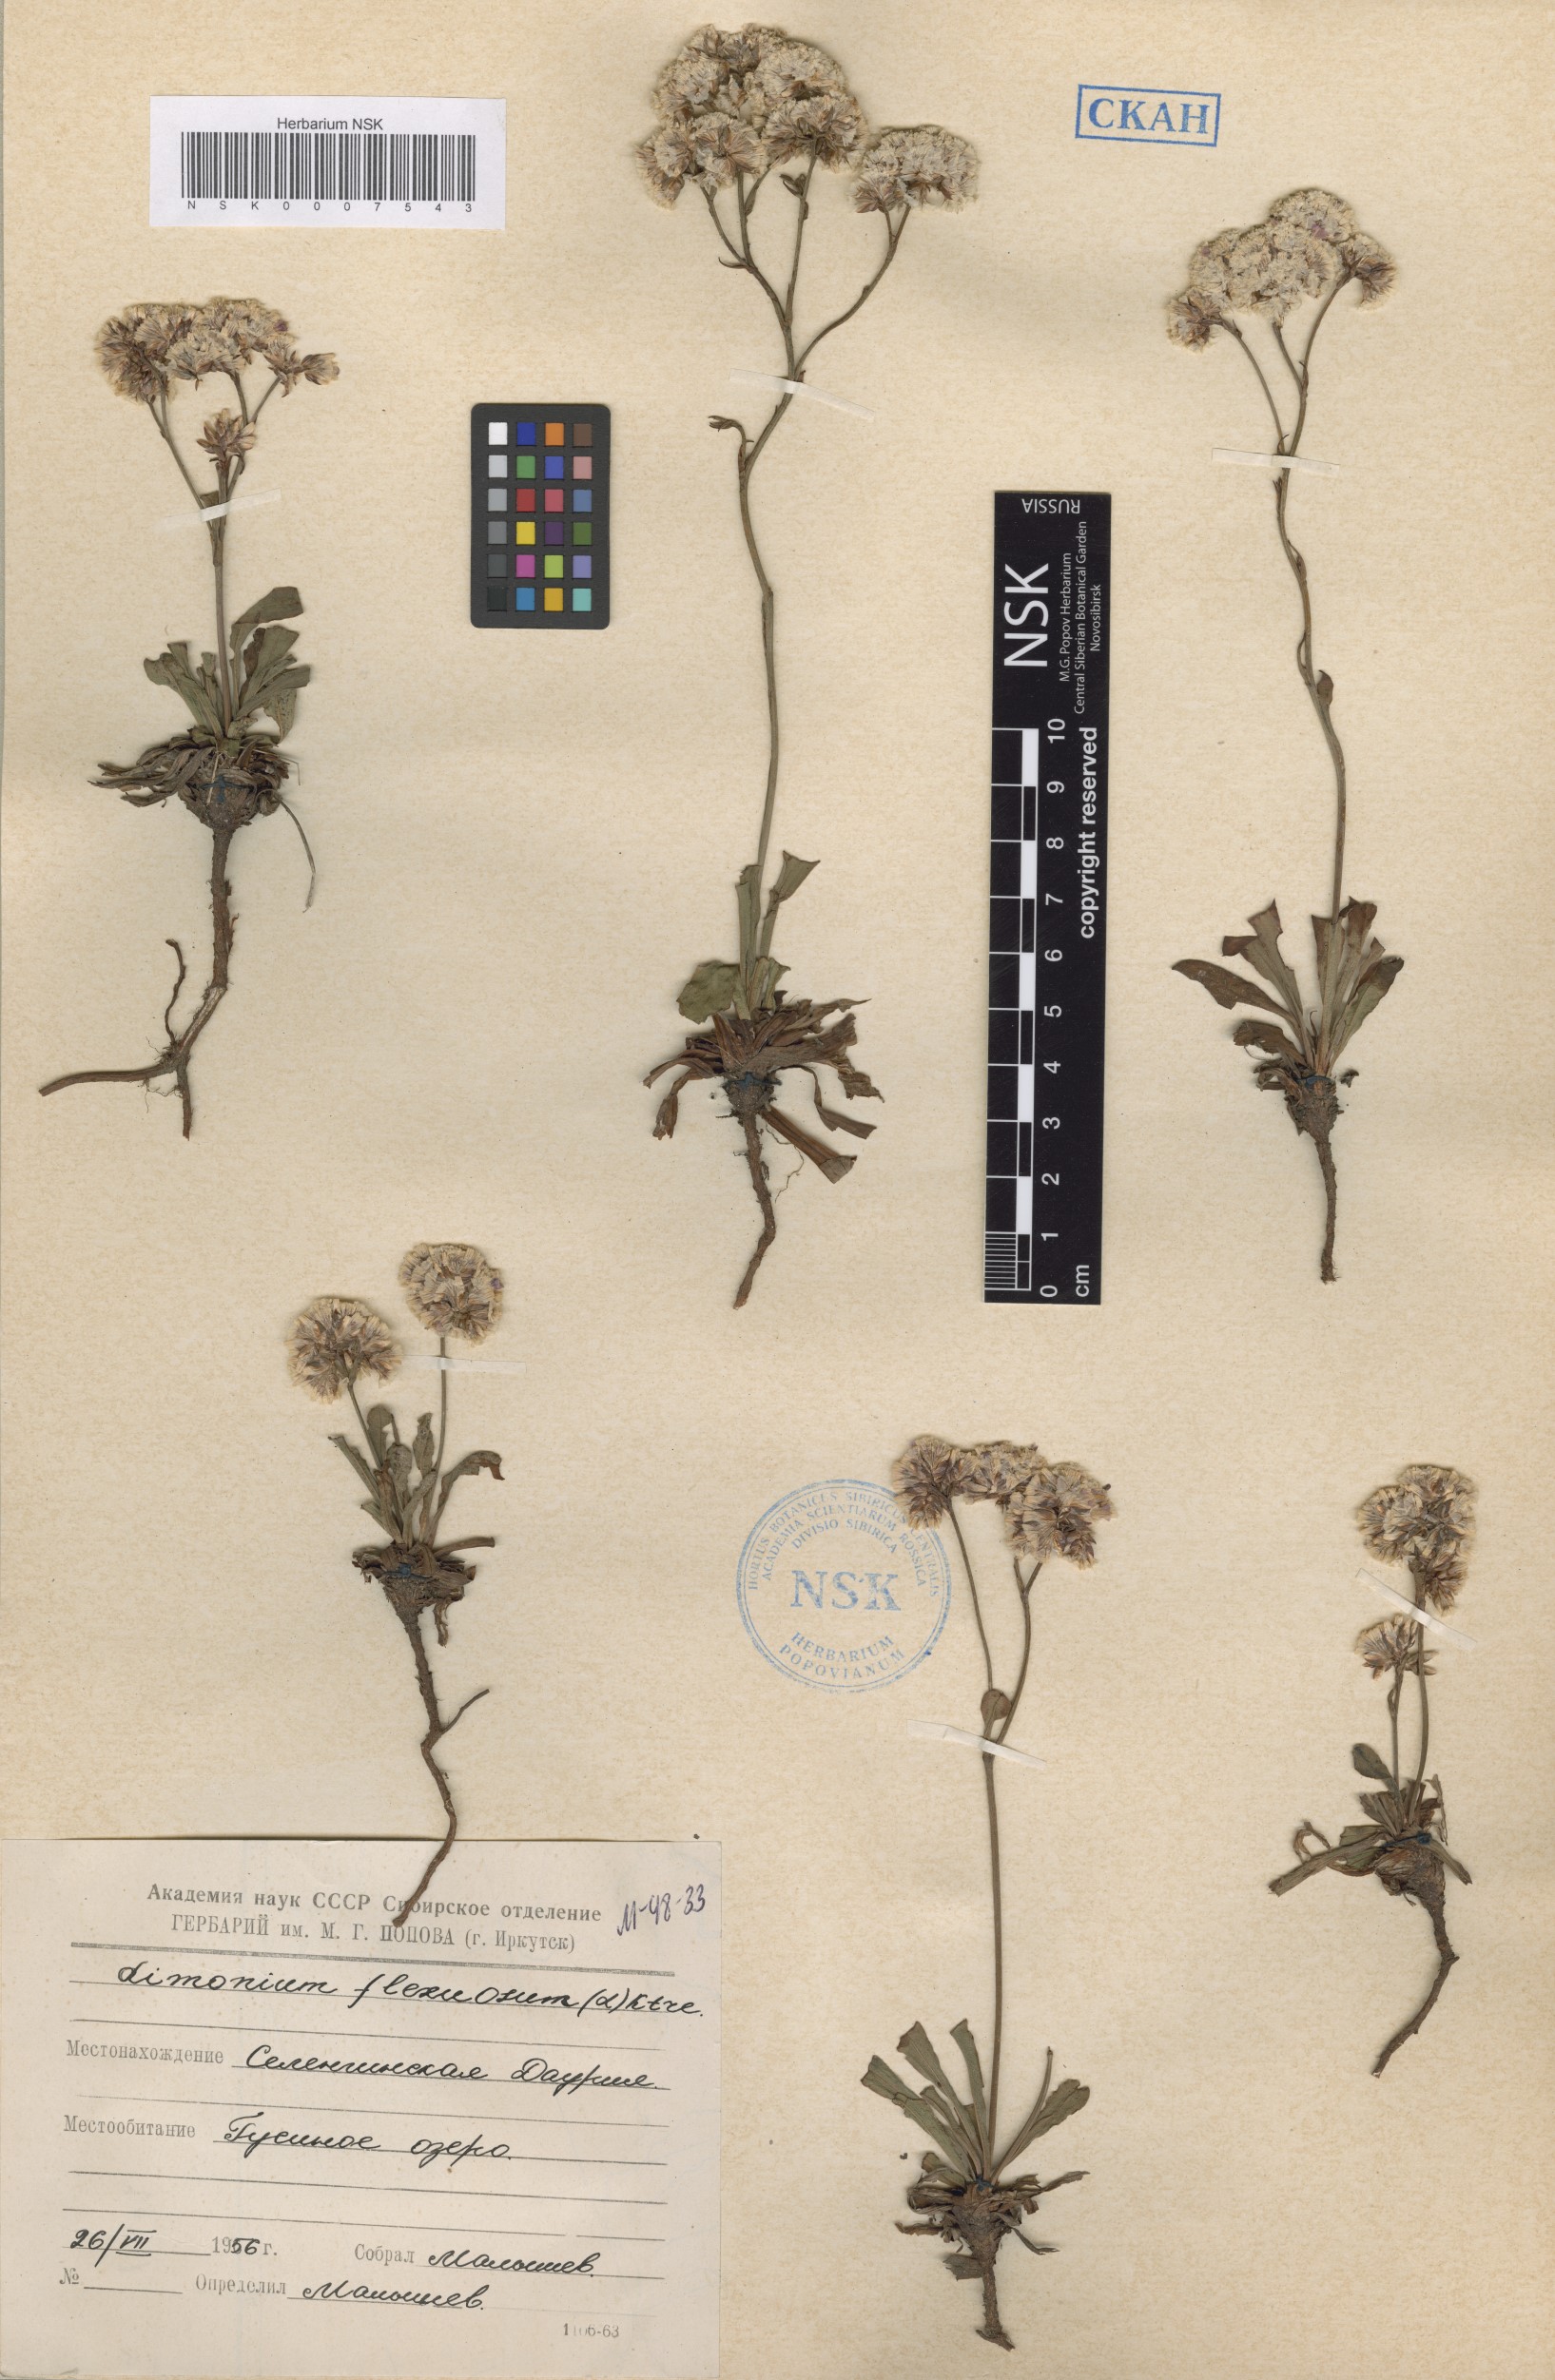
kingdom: Plantae
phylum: Tracheophyta
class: Magnoliopsida
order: Caryophyllales
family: Plumbaginaceae
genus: Limonium
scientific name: Limonium flexuosum
